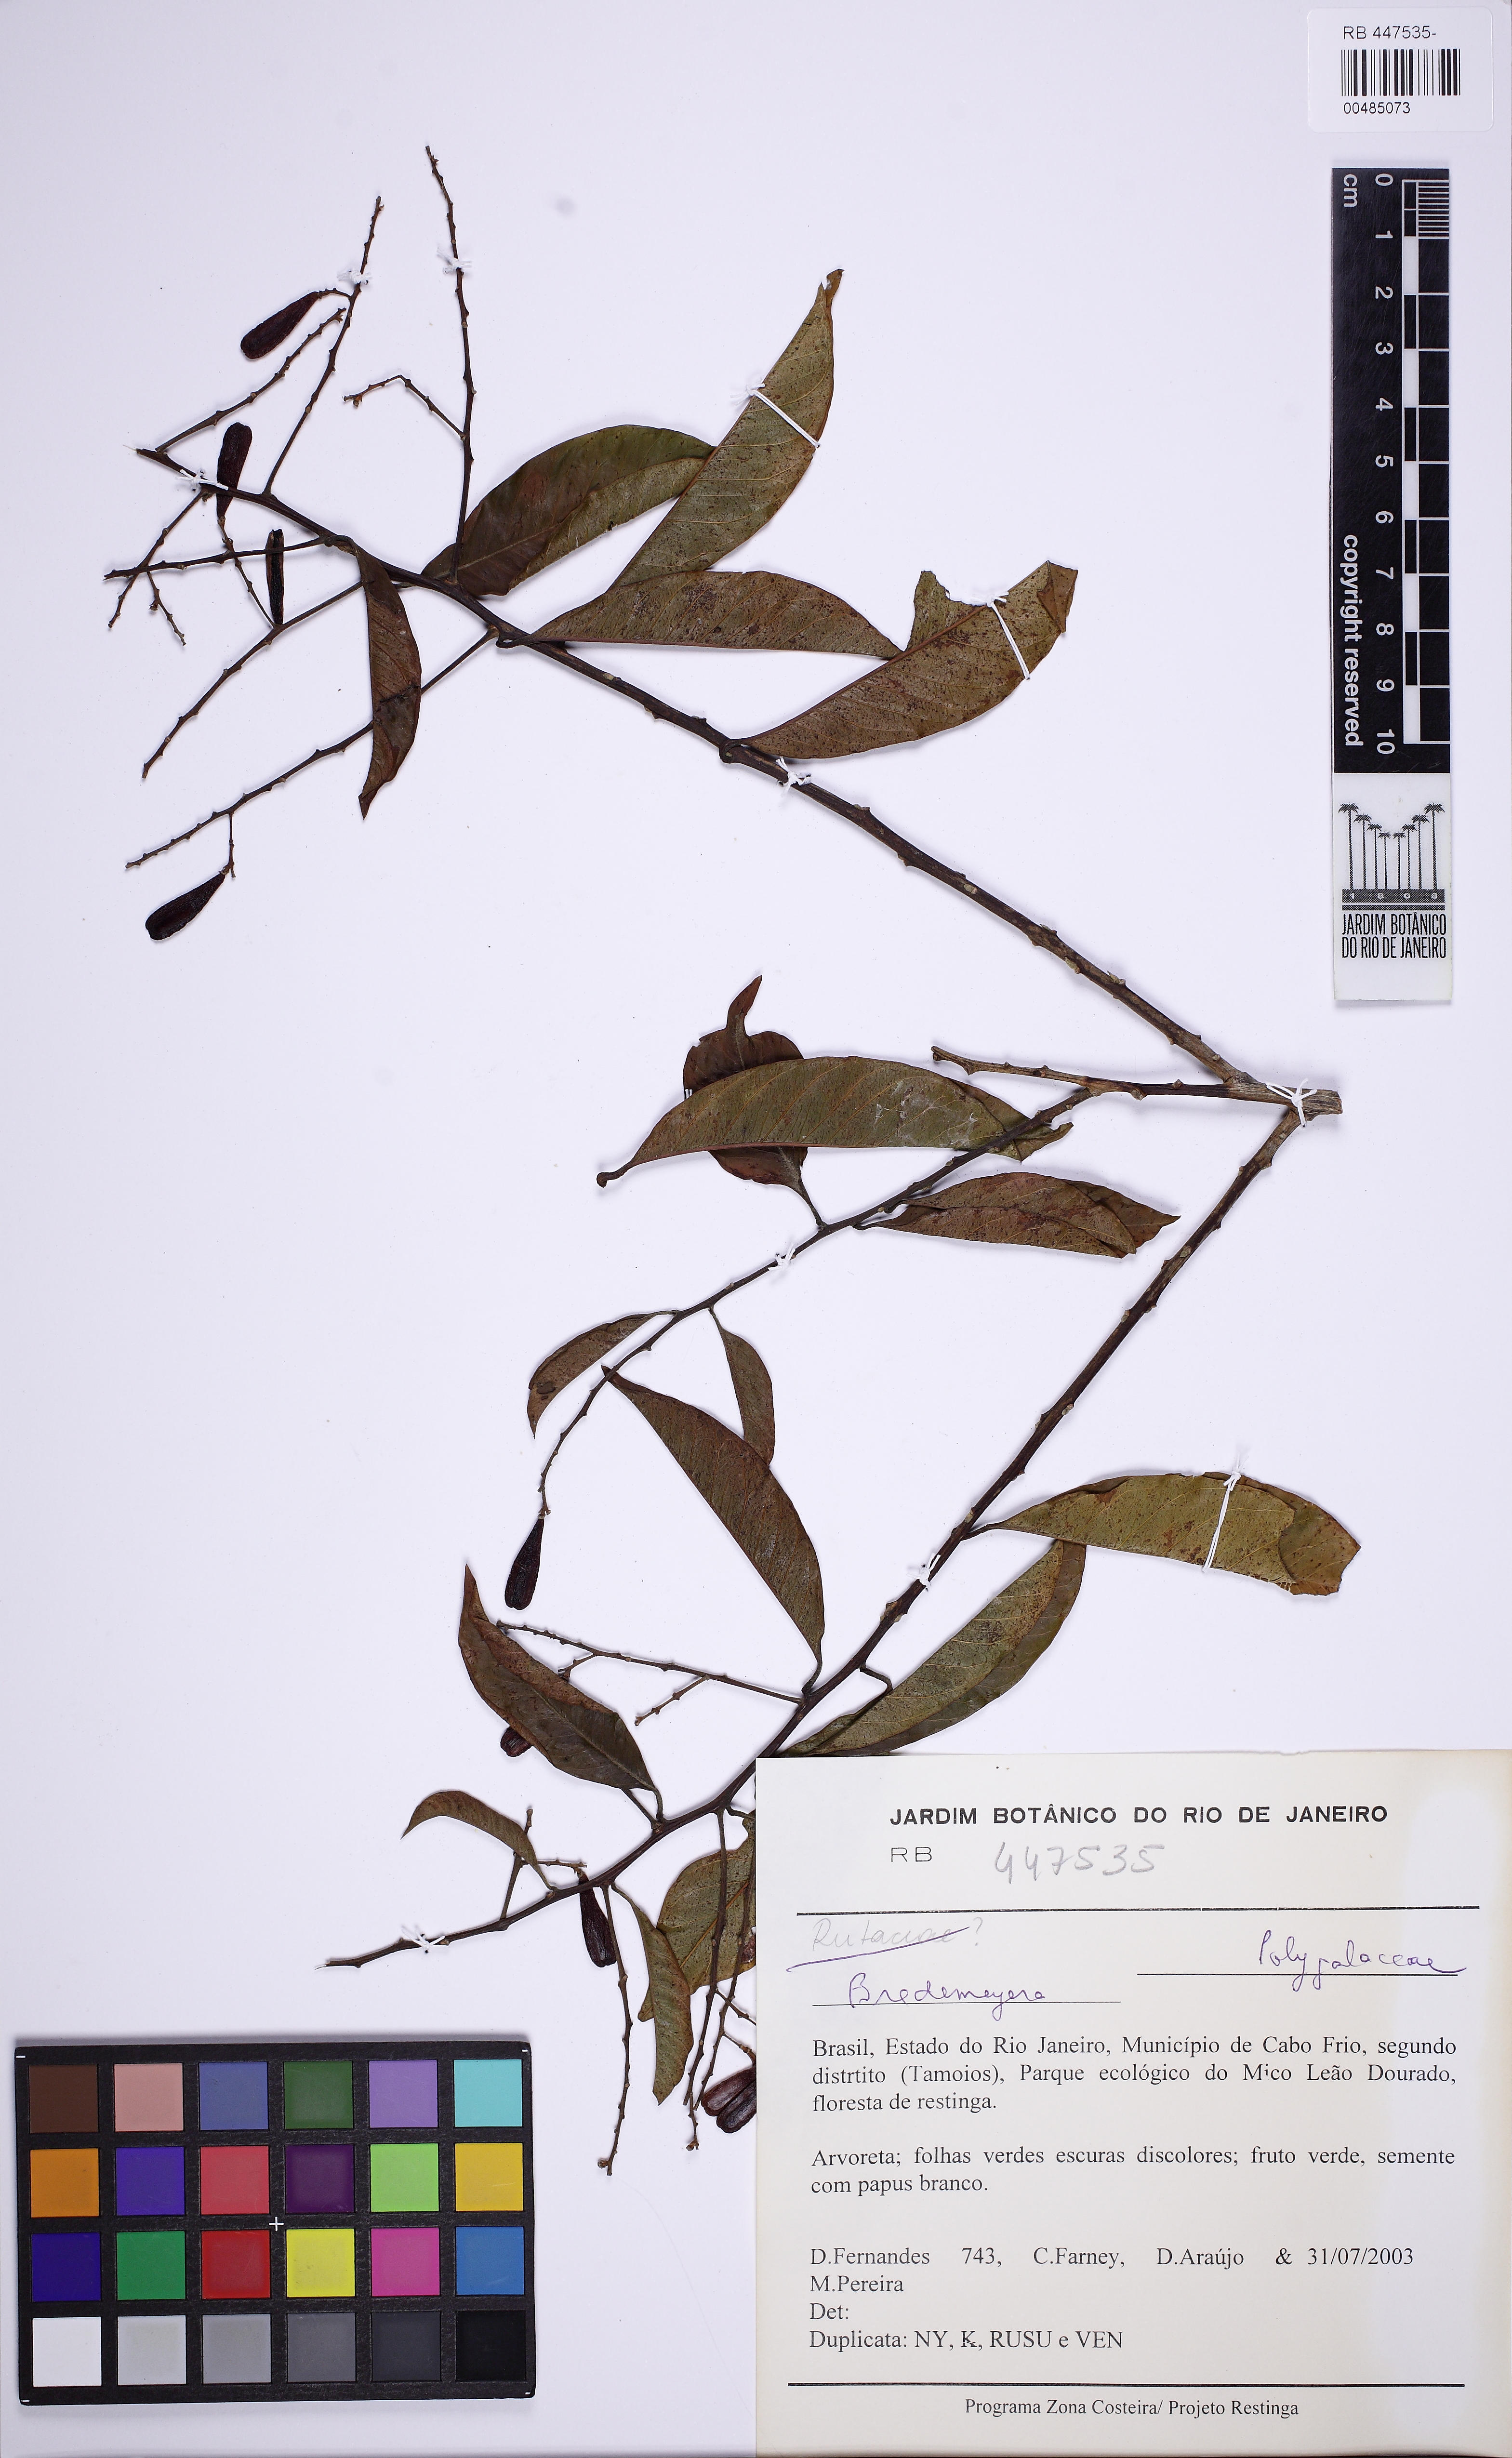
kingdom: Plantae
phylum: Tracheophyta
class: Magnoliopsida
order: Fabales
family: Polygalaceae
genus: Bredemeyera
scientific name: Bredemeyera laurifolia
